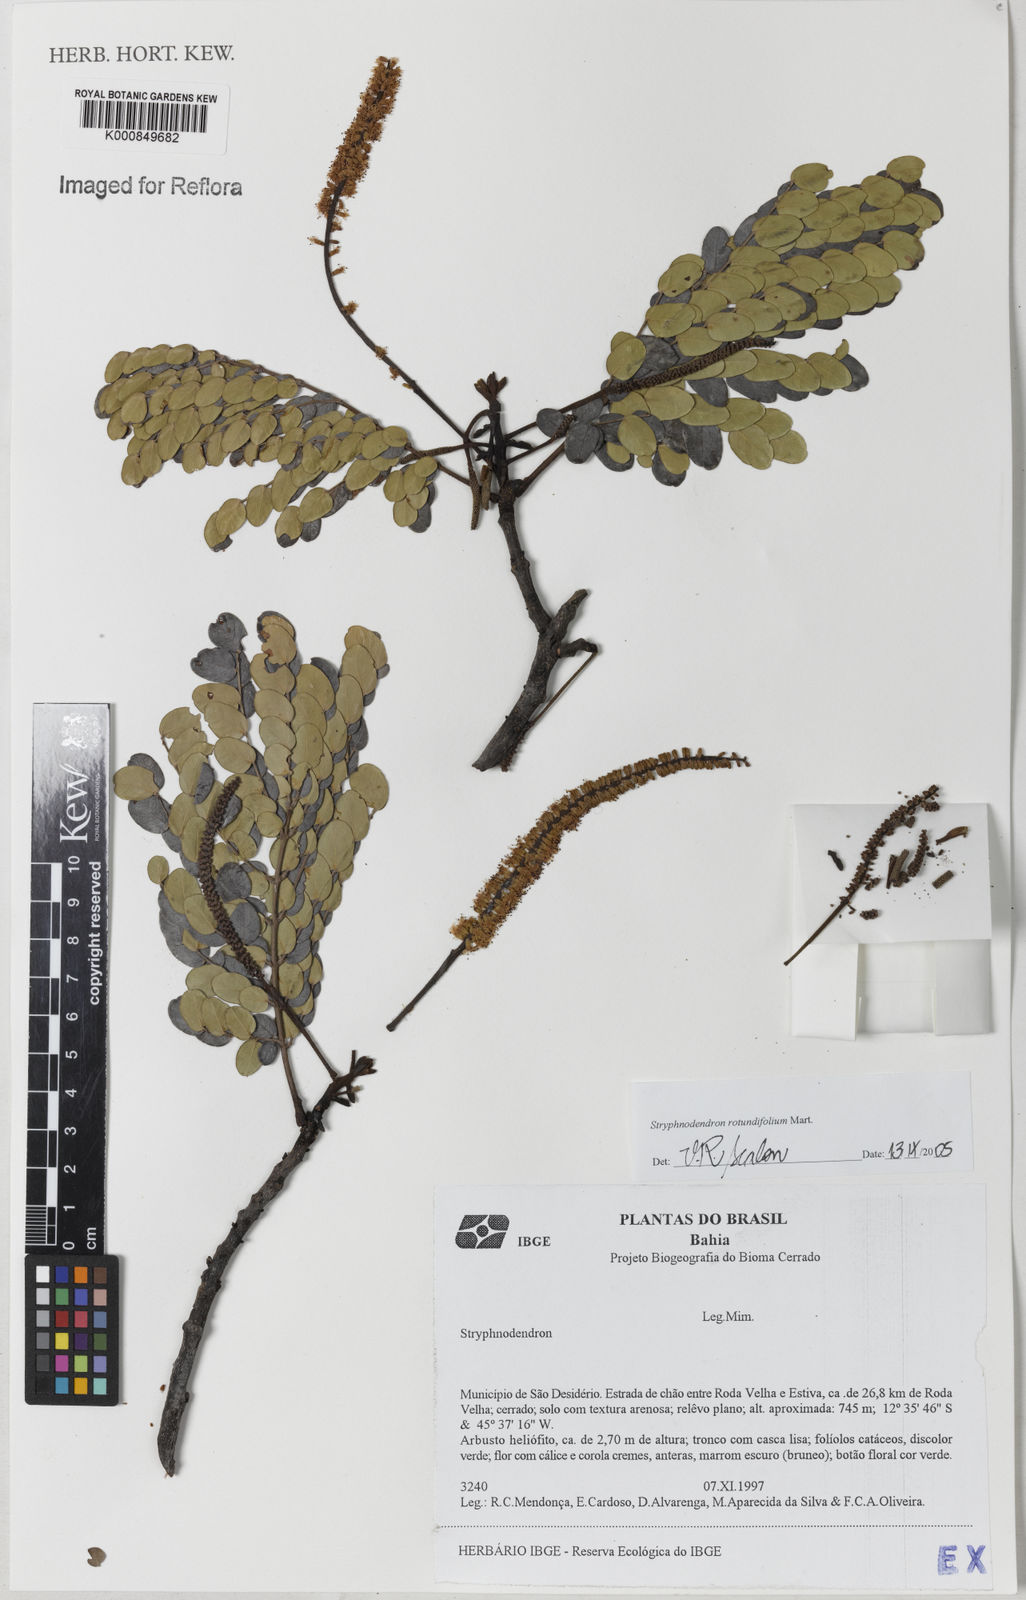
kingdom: Plantae
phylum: Tracheophyta
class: Magnoliopsida
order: Fabales
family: Fabaceae
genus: Stryphnodendron
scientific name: Stryphnodendron rotundifolium
